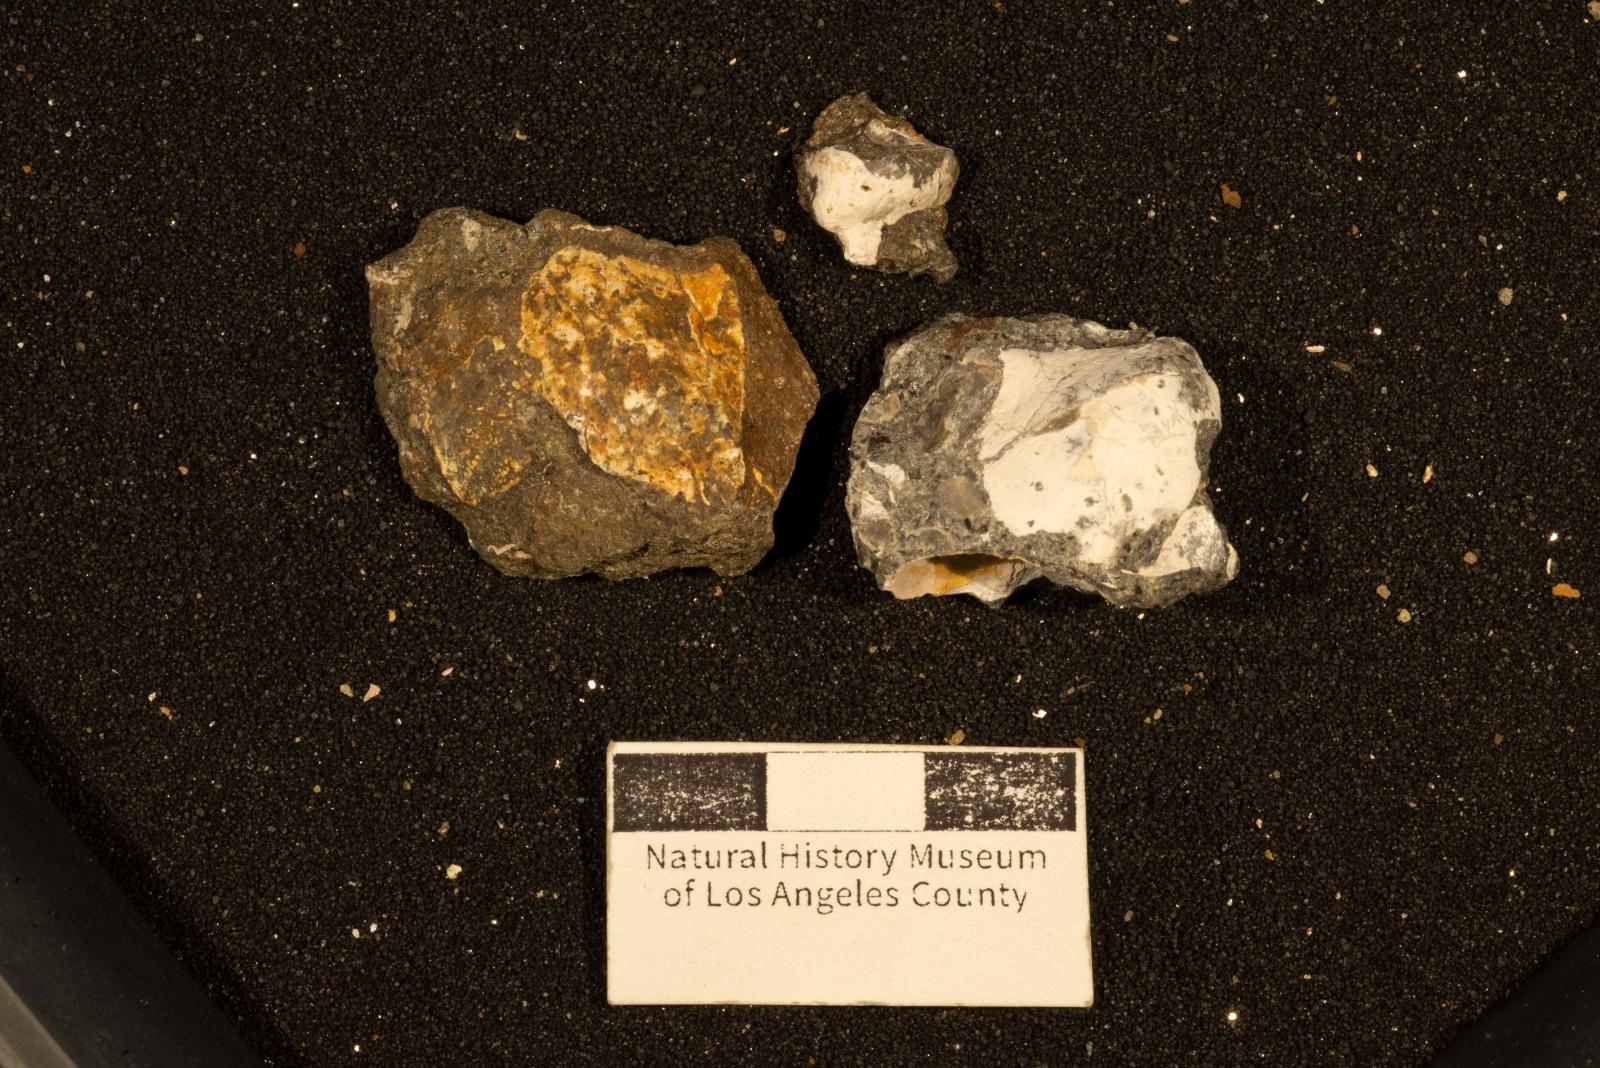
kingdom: Animalia
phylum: Mollusca
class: Bivalvia
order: Ostreida
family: Pteriidae
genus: Pteria
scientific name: Pteria pellucida
